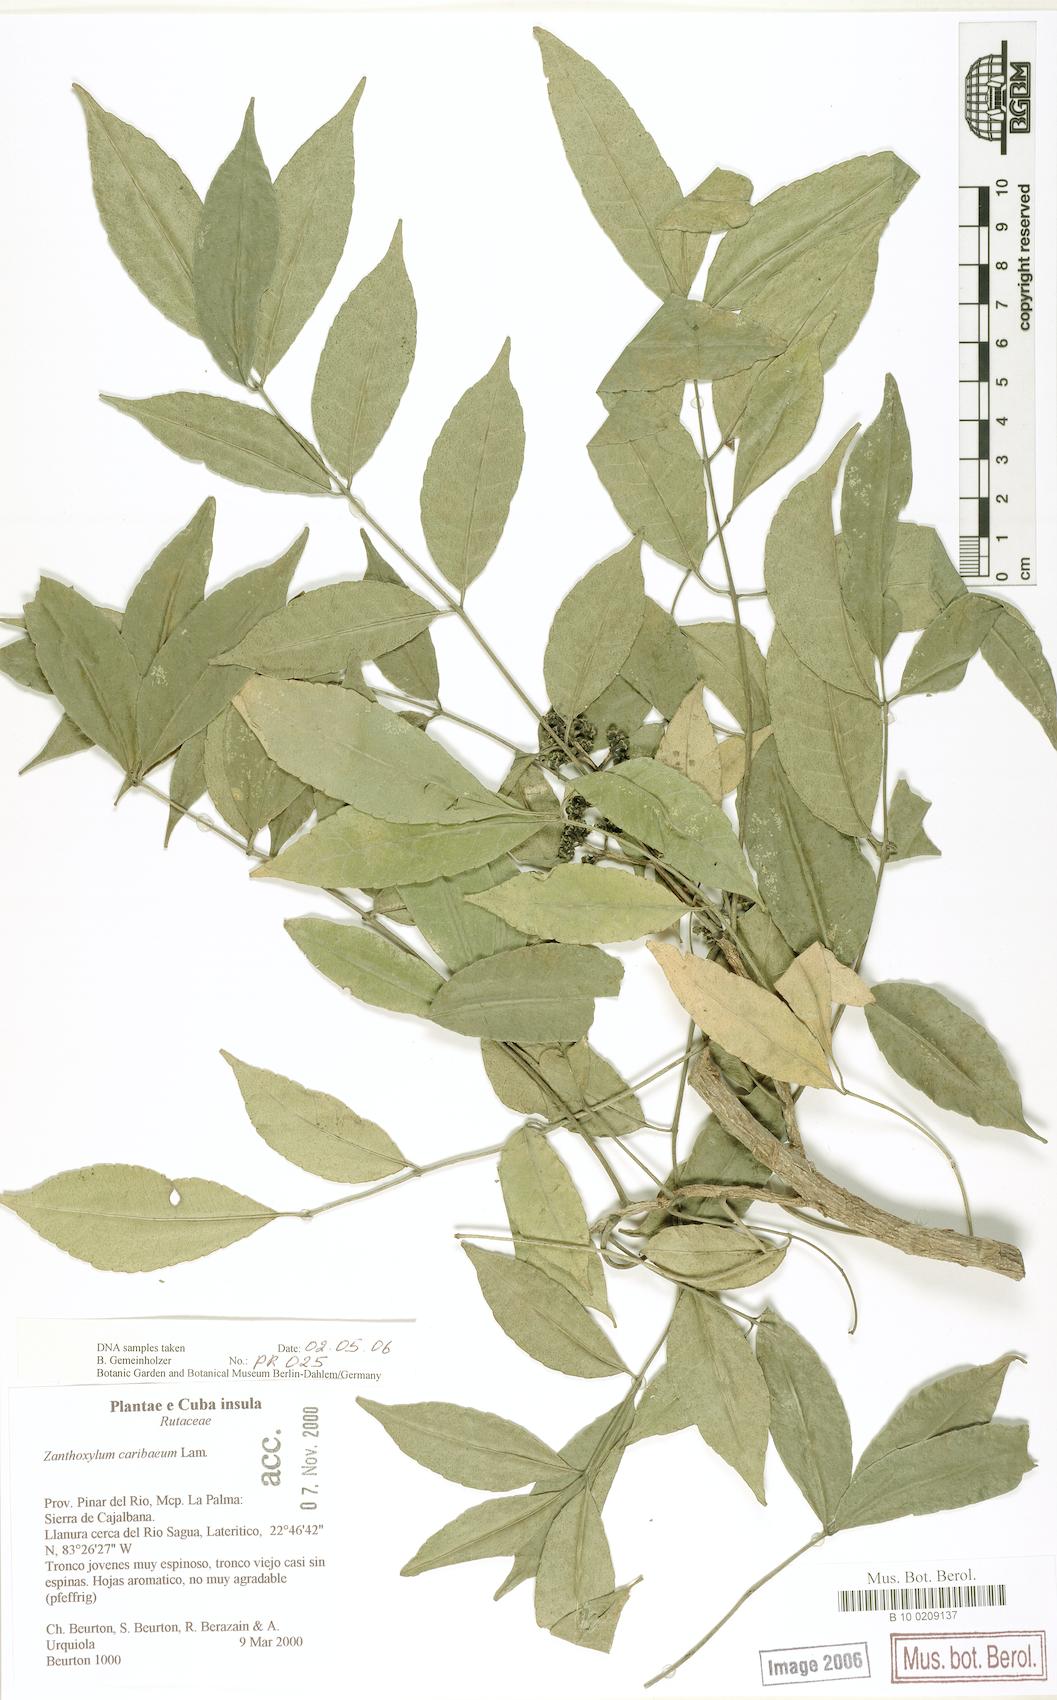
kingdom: Plantae
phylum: Tracheophyta
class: Magnoliopsida
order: Sapindales
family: Rutaceae
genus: Zanthoxylum
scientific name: Zanthoxylum caribaeum
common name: Prickly yellow
